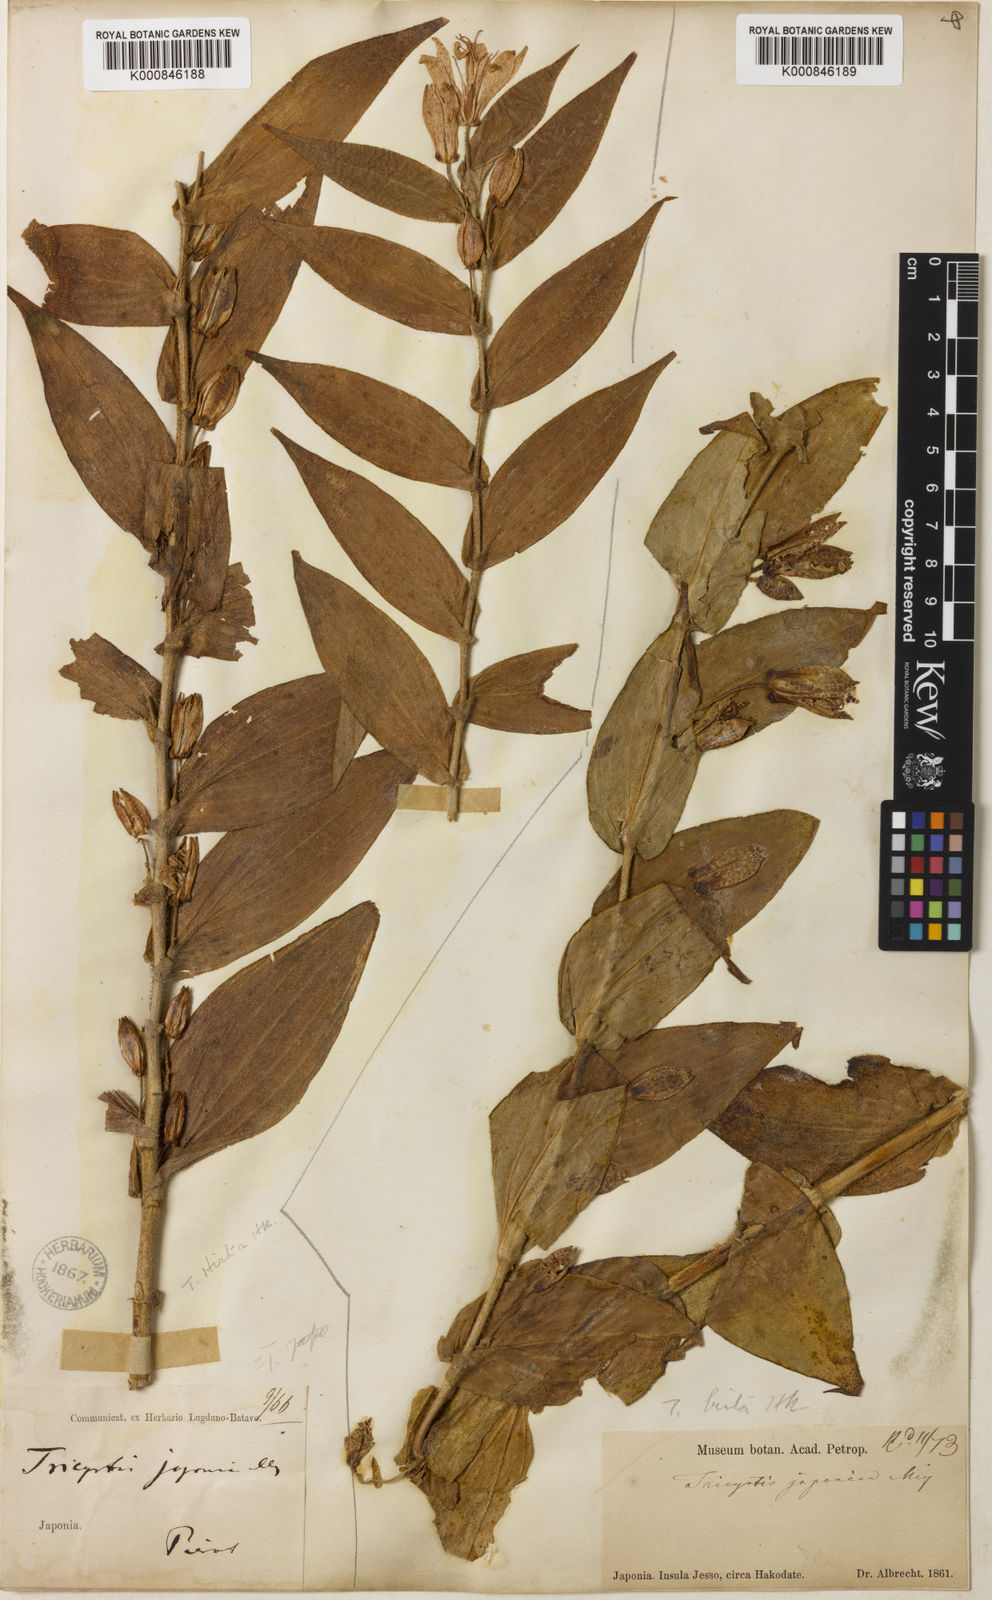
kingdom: Plantae
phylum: Tracheophyta
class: Liliopsida
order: Liliales
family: Liliaceae
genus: Tricyrtis
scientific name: Tricyrtis hirta
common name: Toadlily
